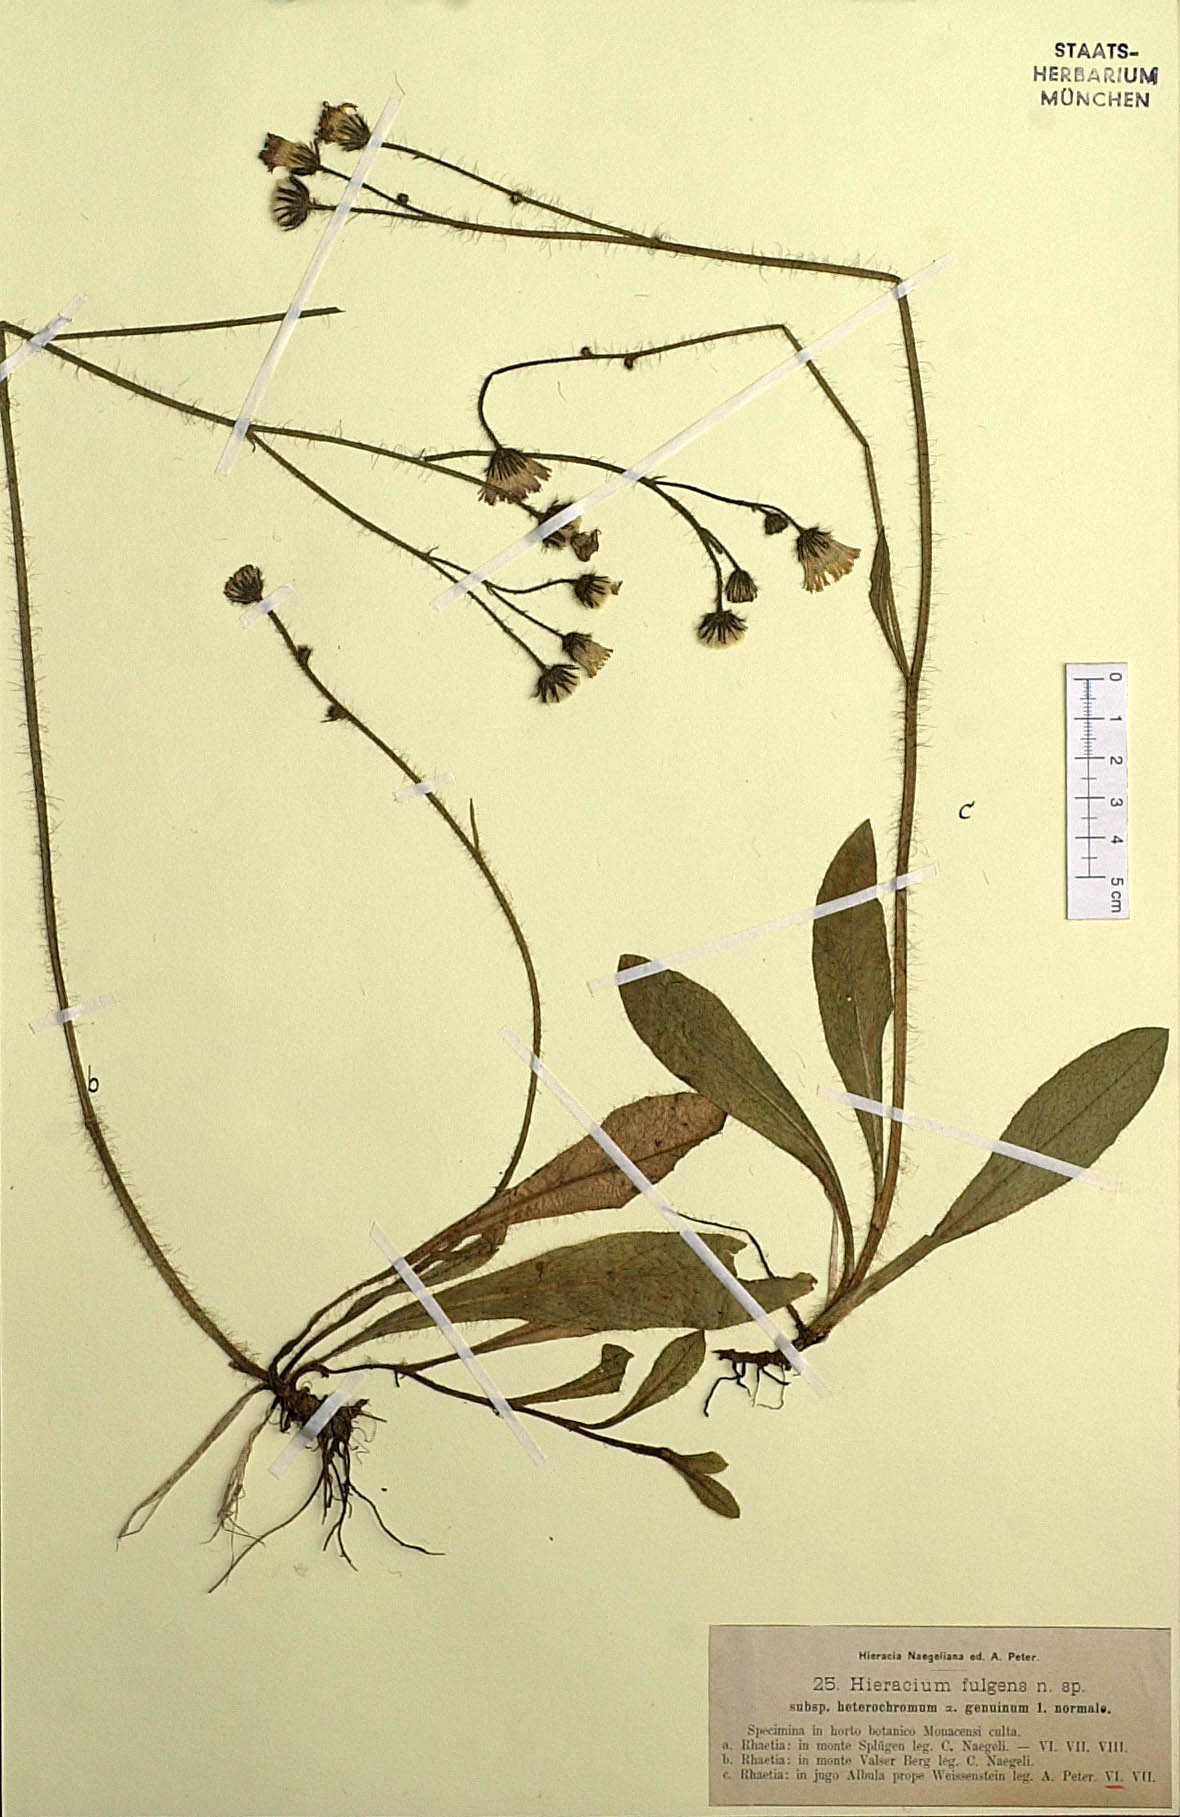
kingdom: Plantae
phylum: Tracheophyta
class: Magnoliopsida
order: Asterales
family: Asteraceae
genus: Pilosella
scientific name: Pilosella notha
